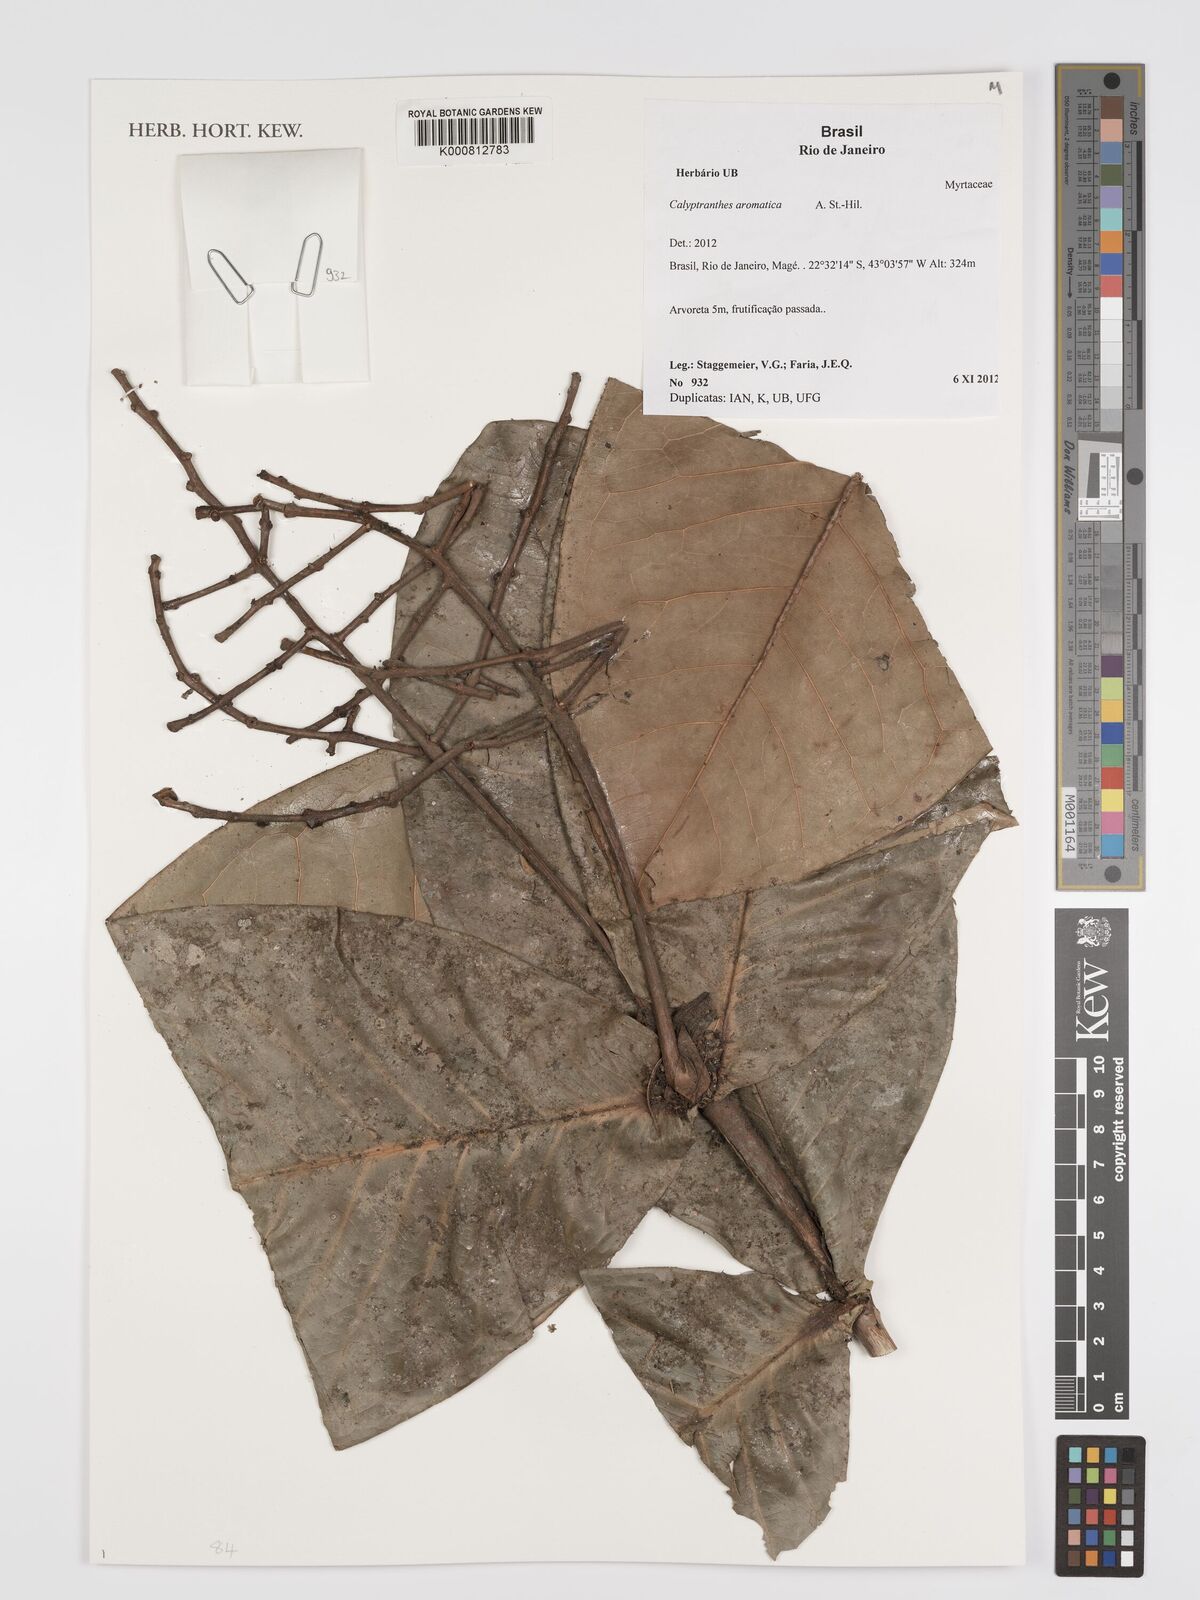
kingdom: Plantae
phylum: Tracheophyta
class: Magnoliopsida
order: Myrtales
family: Myrtaceae
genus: Myrcia
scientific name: Myrcia carioca
